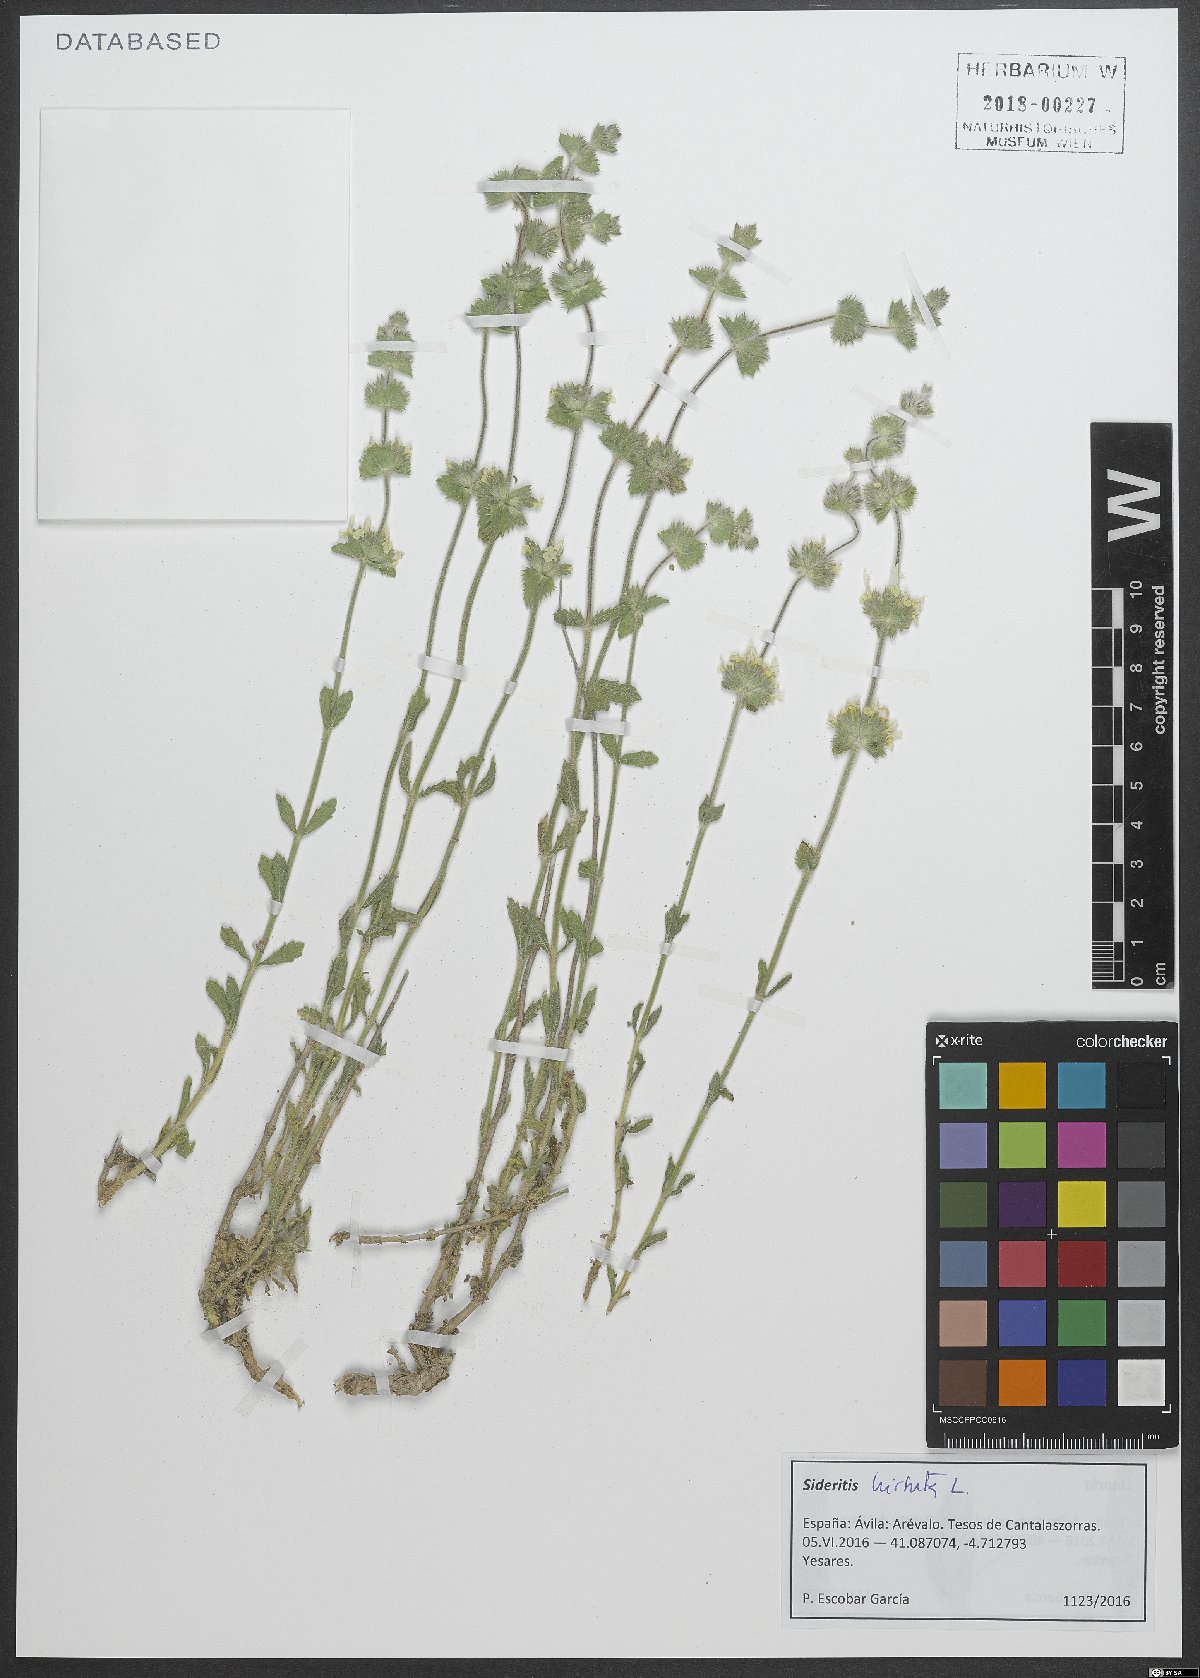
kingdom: Plantae
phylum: Tracheophyta
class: Magnoliopsida
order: Lamiales
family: Lamiaceae
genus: Sideritis
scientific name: Sideritis hirsuta
